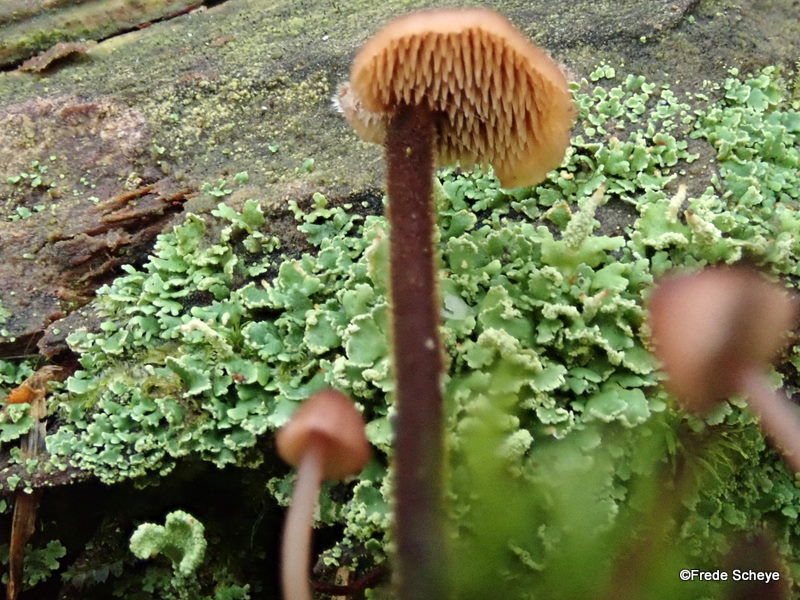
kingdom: Fungi
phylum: Basidiomycota
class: Agaricomycetes
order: Russulales
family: Auriscalpiaceae
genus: Auriscalpium
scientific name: Auriscalpium vulgare
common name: koglepigsvamp
